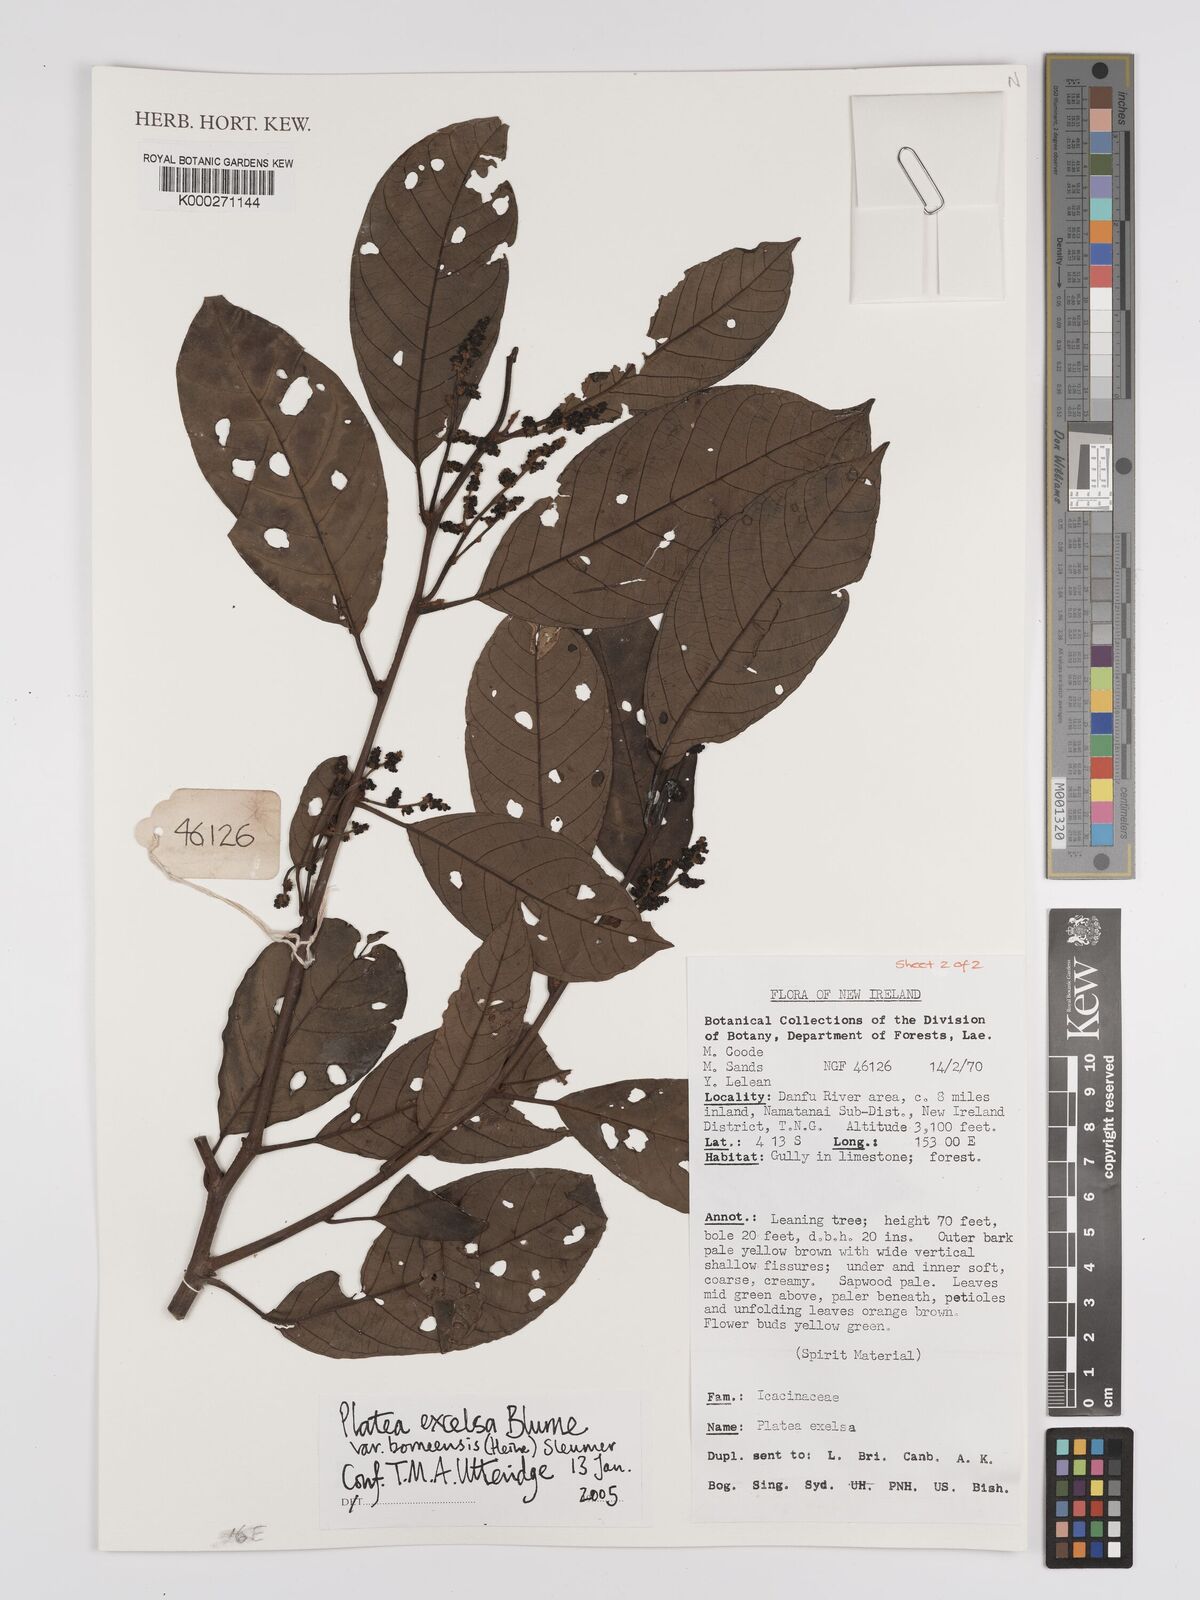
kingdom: Plantae
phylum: Tracheophyta
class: Magnoliopsida
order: Metteniusales
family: Metteniusaceae
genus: Platea
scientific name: Platea excelsa
